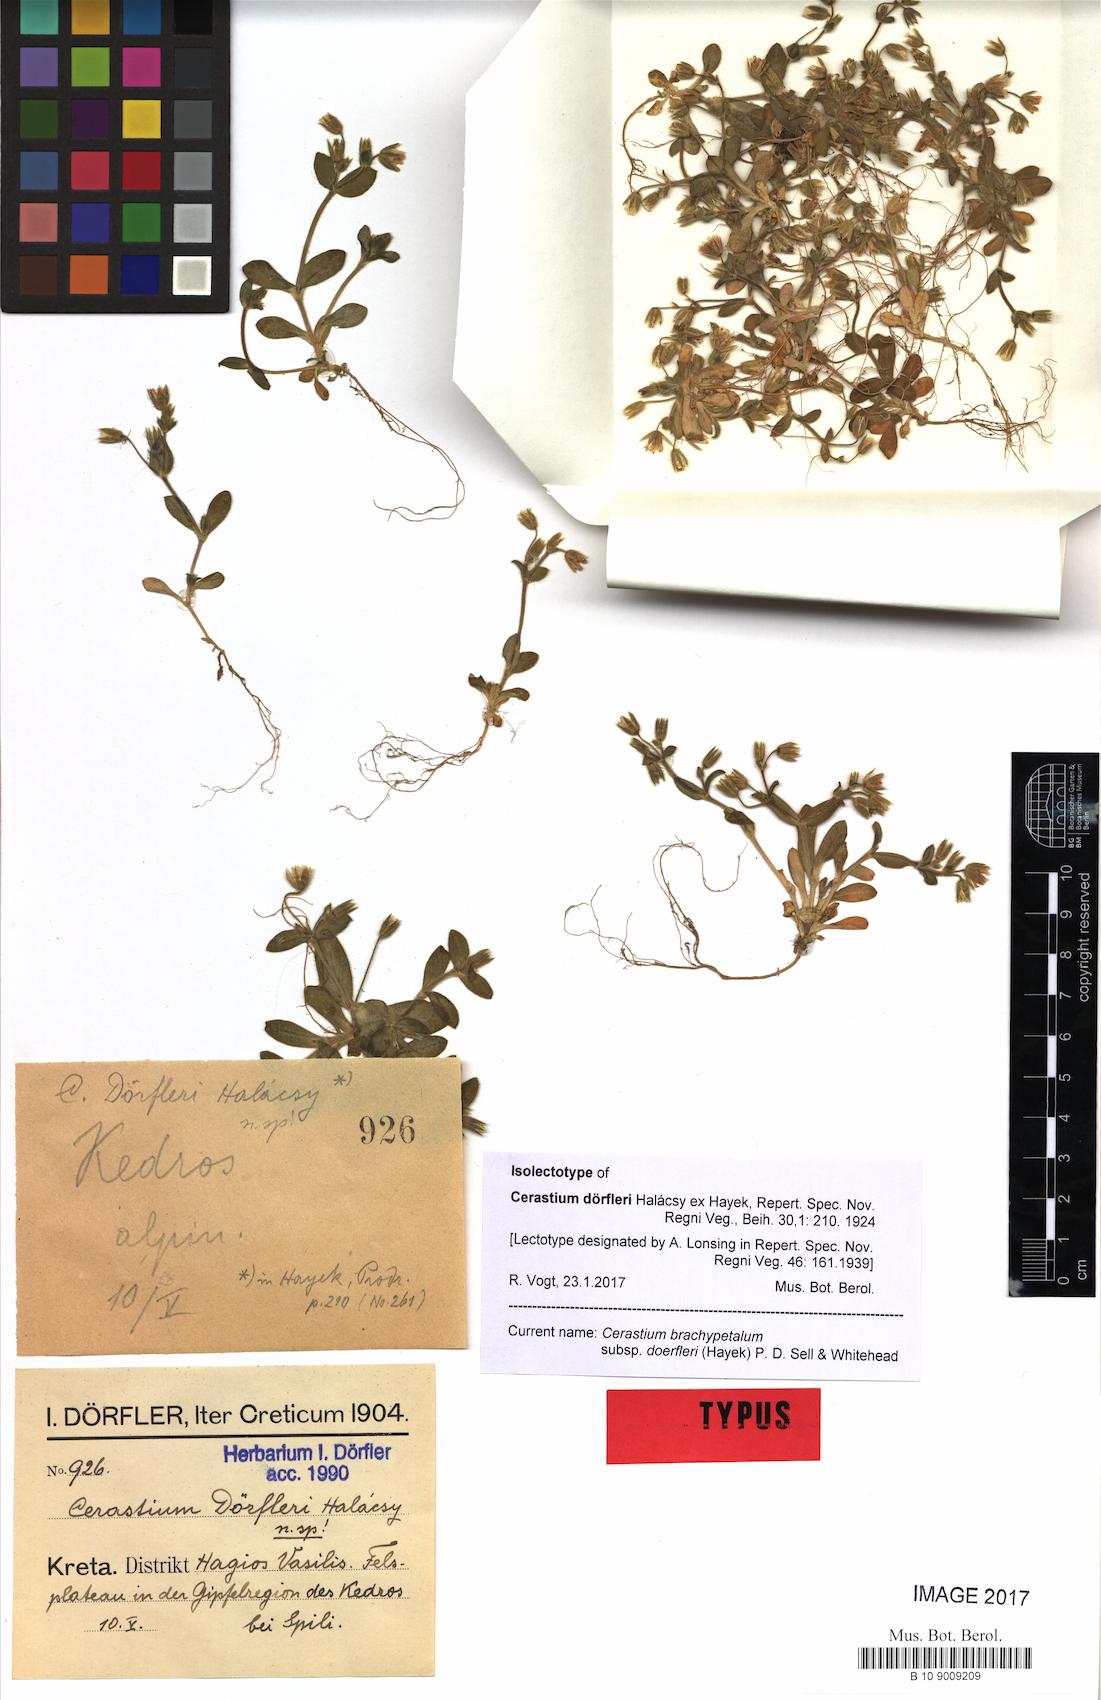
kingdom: Plantae
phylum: Tracheophyta
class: Magnoliopsida
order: Caryophyllales
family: Caryophyllaceae
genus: Cerastium
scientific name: Cerastium brachypetalum
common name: Grey mouse-ear
